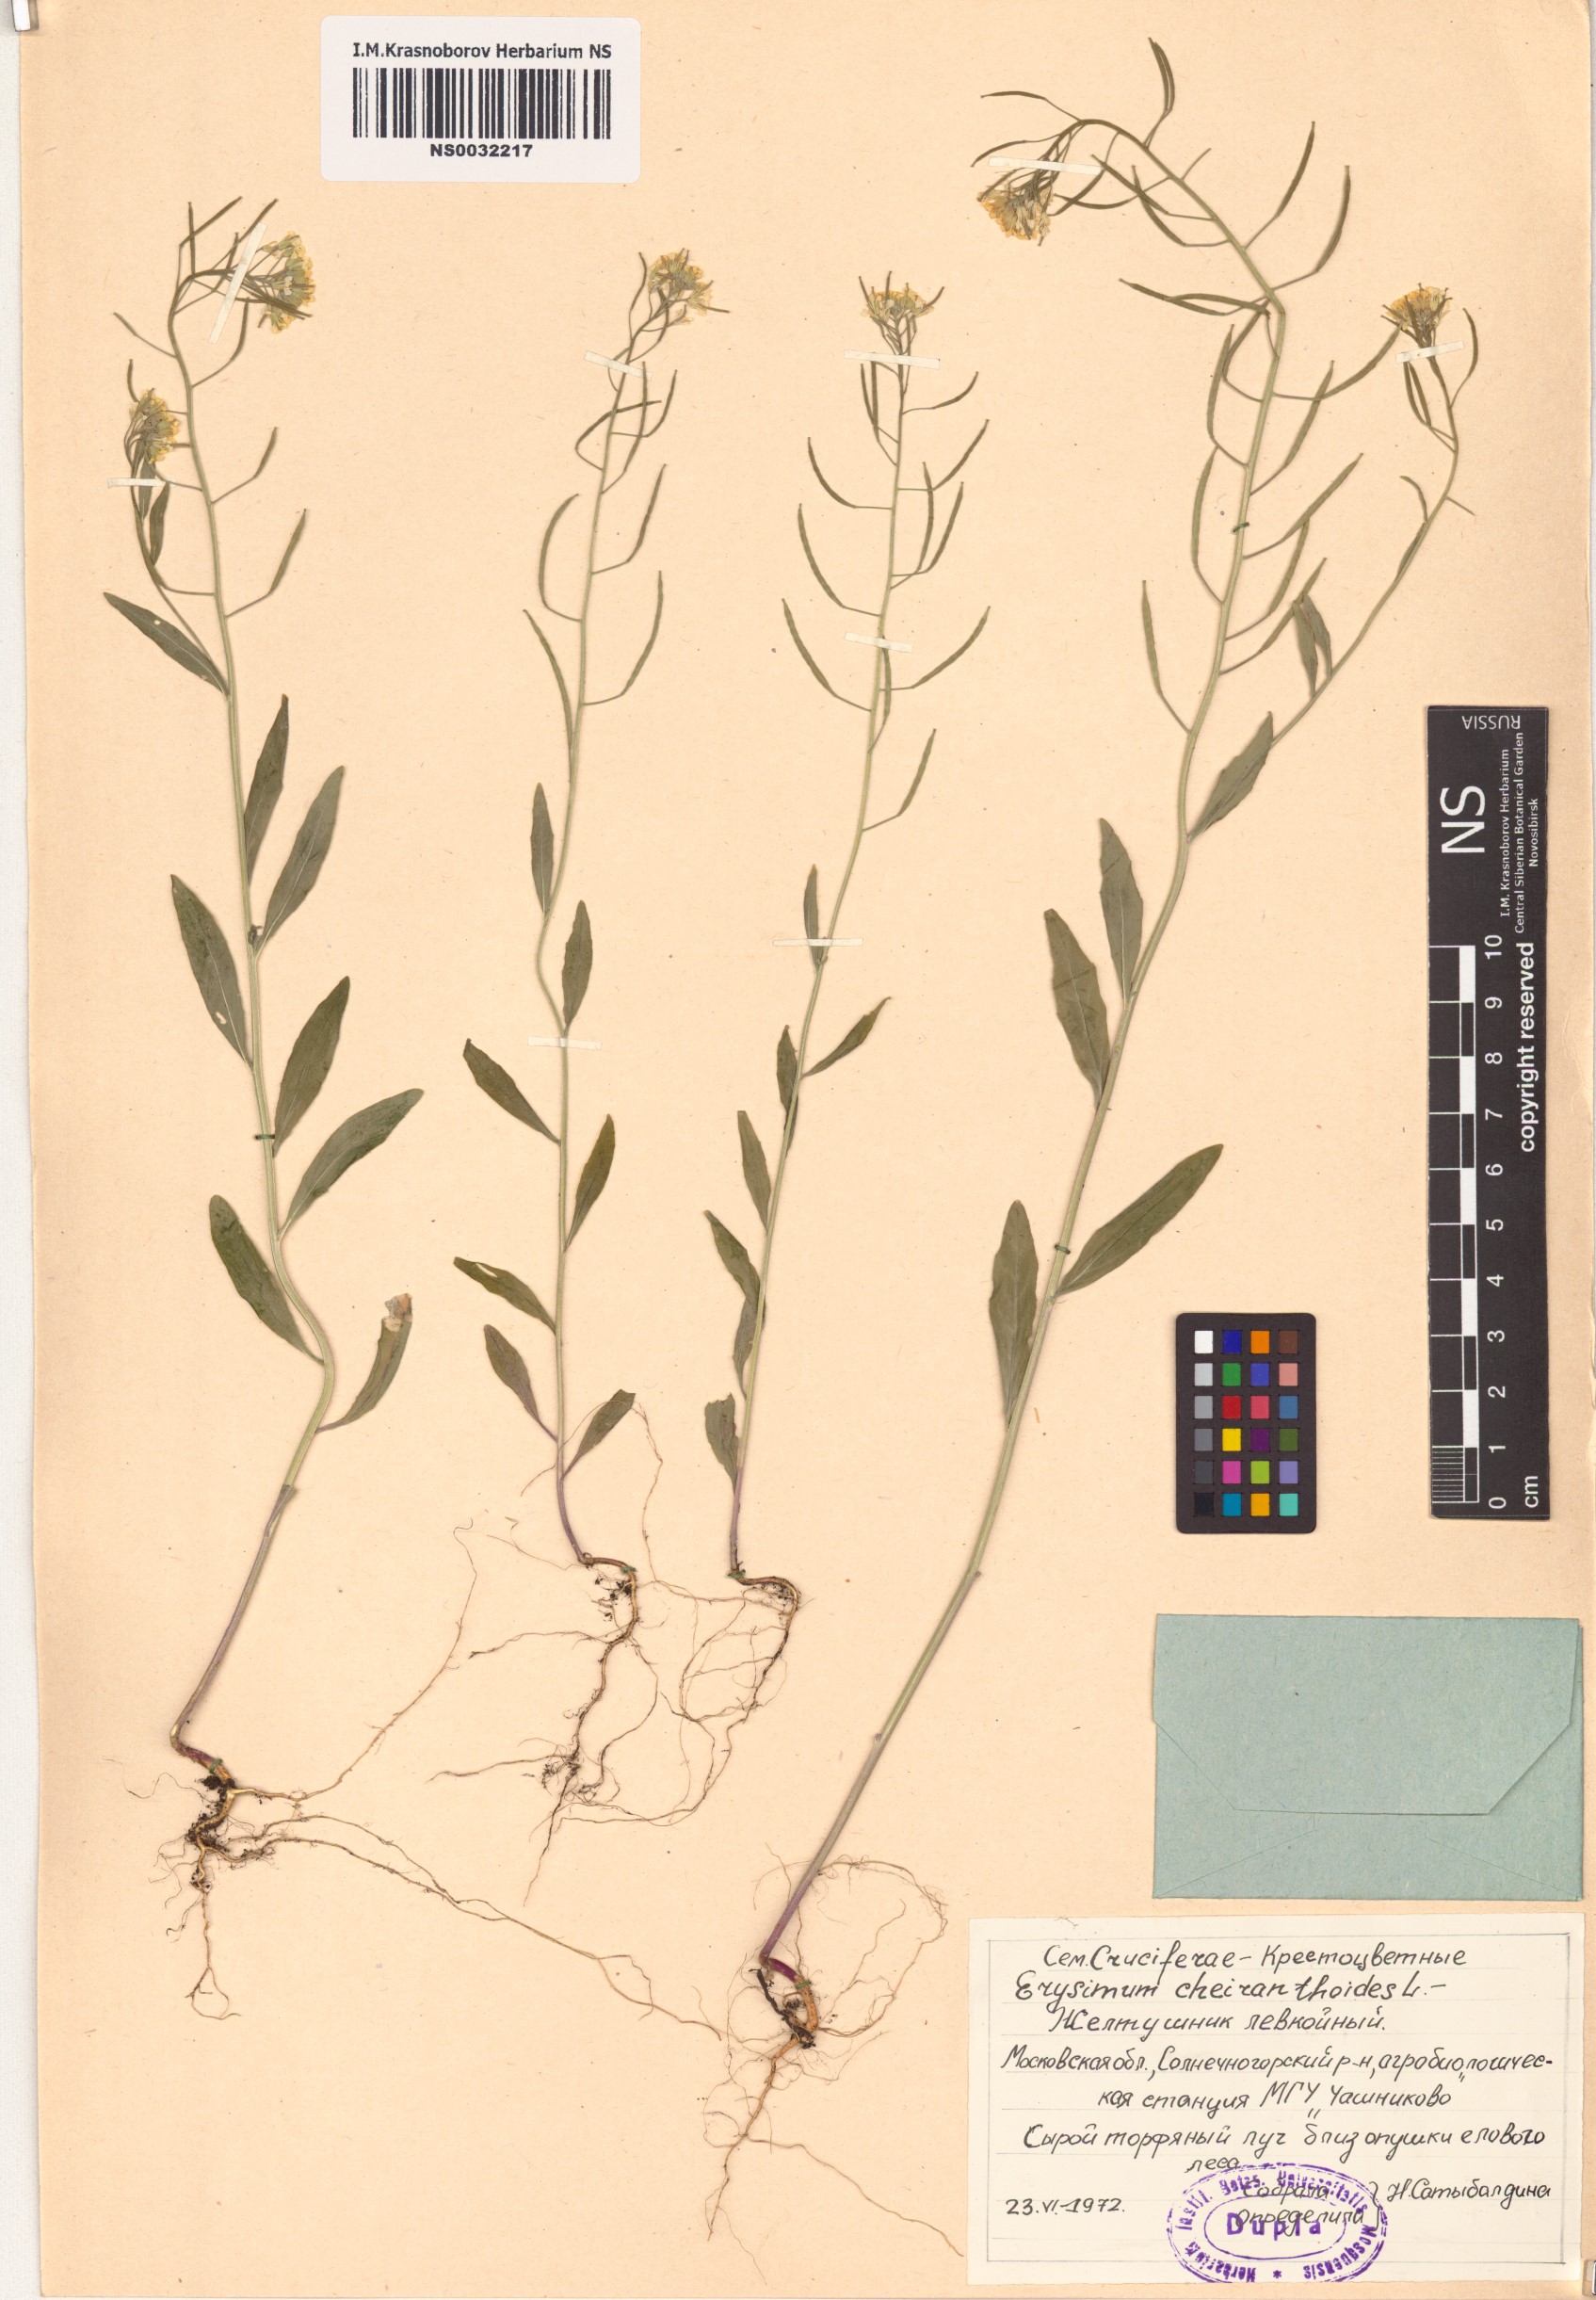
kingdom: Plantae
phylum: Tracheophyta
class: Magnoliopsida
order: Brassicales
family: Brassicaceae
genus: Erysimum
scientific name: Erysimum cheiranthoides
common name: Treacle mustard
